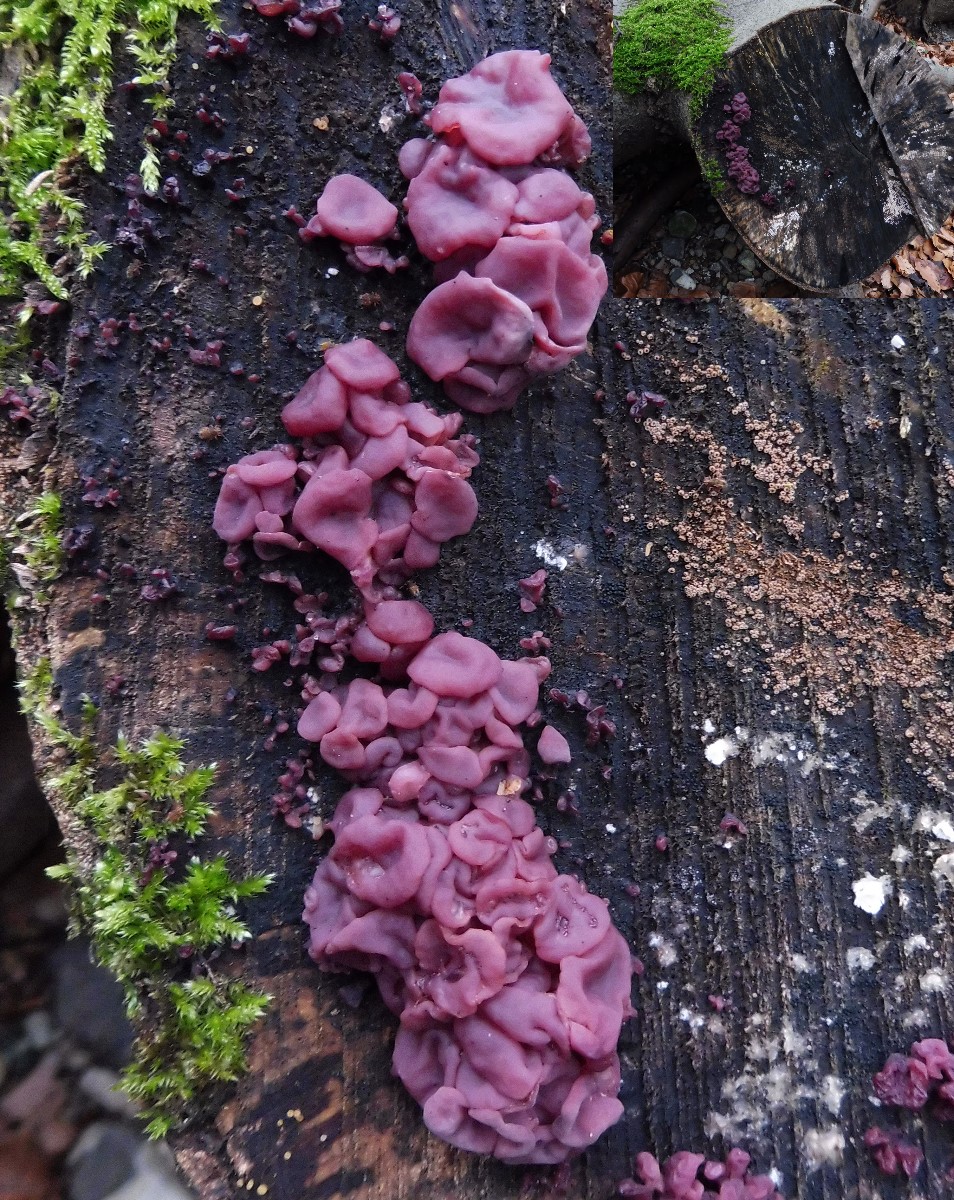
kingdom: Fungi
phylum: Ascomycota
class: Leotiomycetes
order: Helotiales
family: Gelatinodiscaceae
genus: Ascocoryne
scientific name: Ascocoryne cylichnium
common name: stor sejskive
